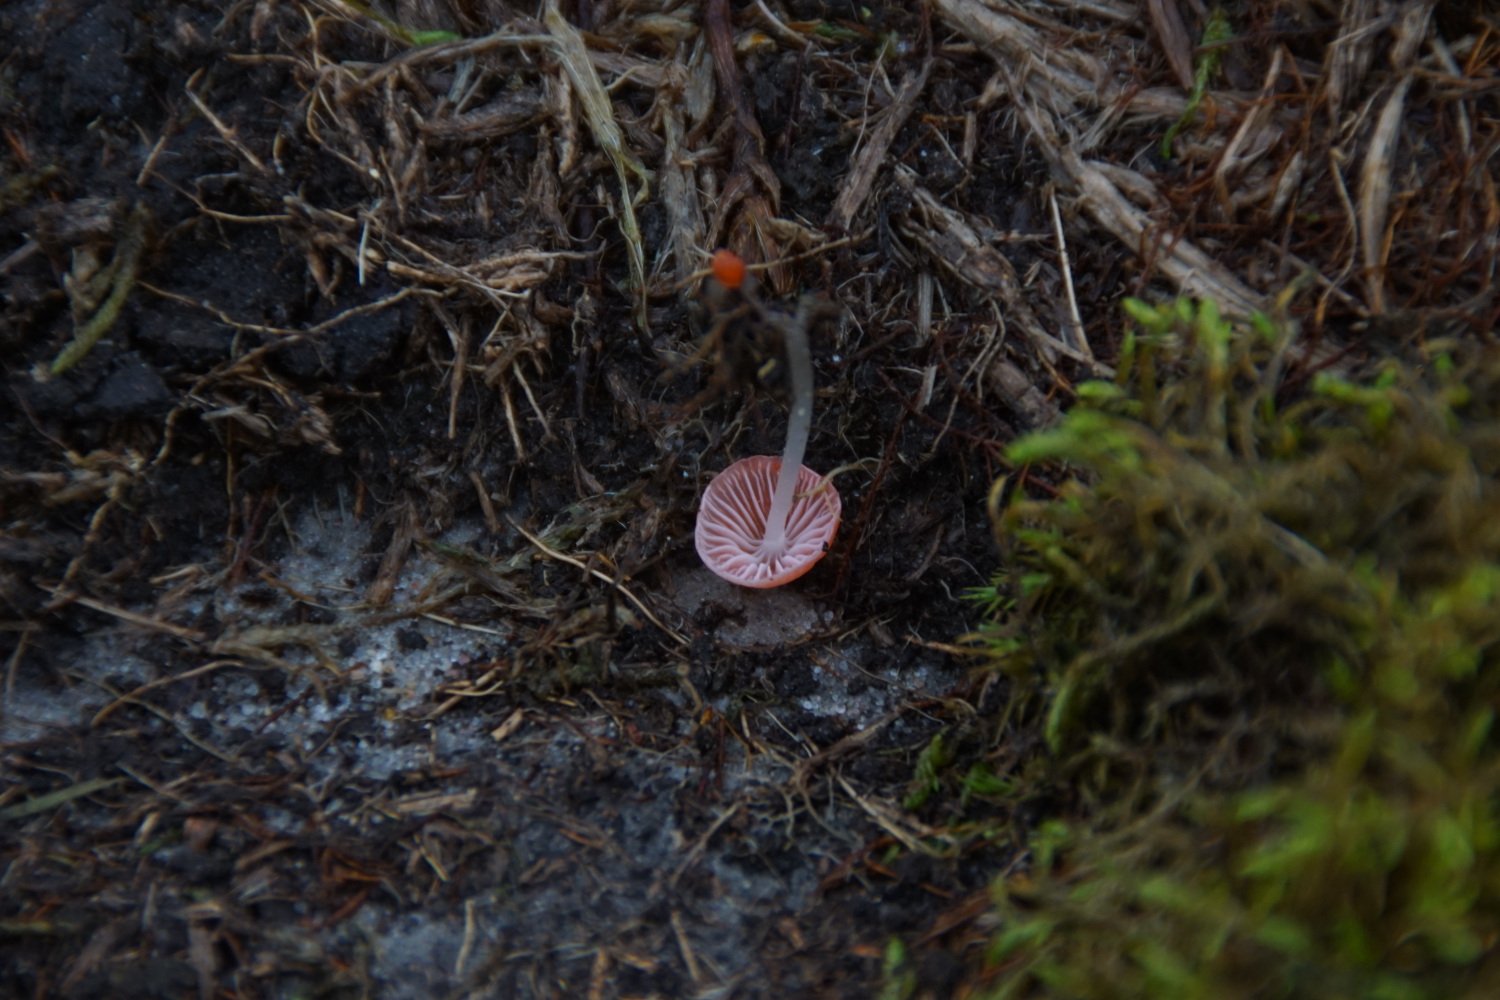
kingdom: Fungi
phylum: Basidiomycota
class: Agaricomycetes
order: Agaricales
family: Mycenaceae
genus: Atheniella
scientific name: Atheniella adonis
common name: rønnerød huesvamp
